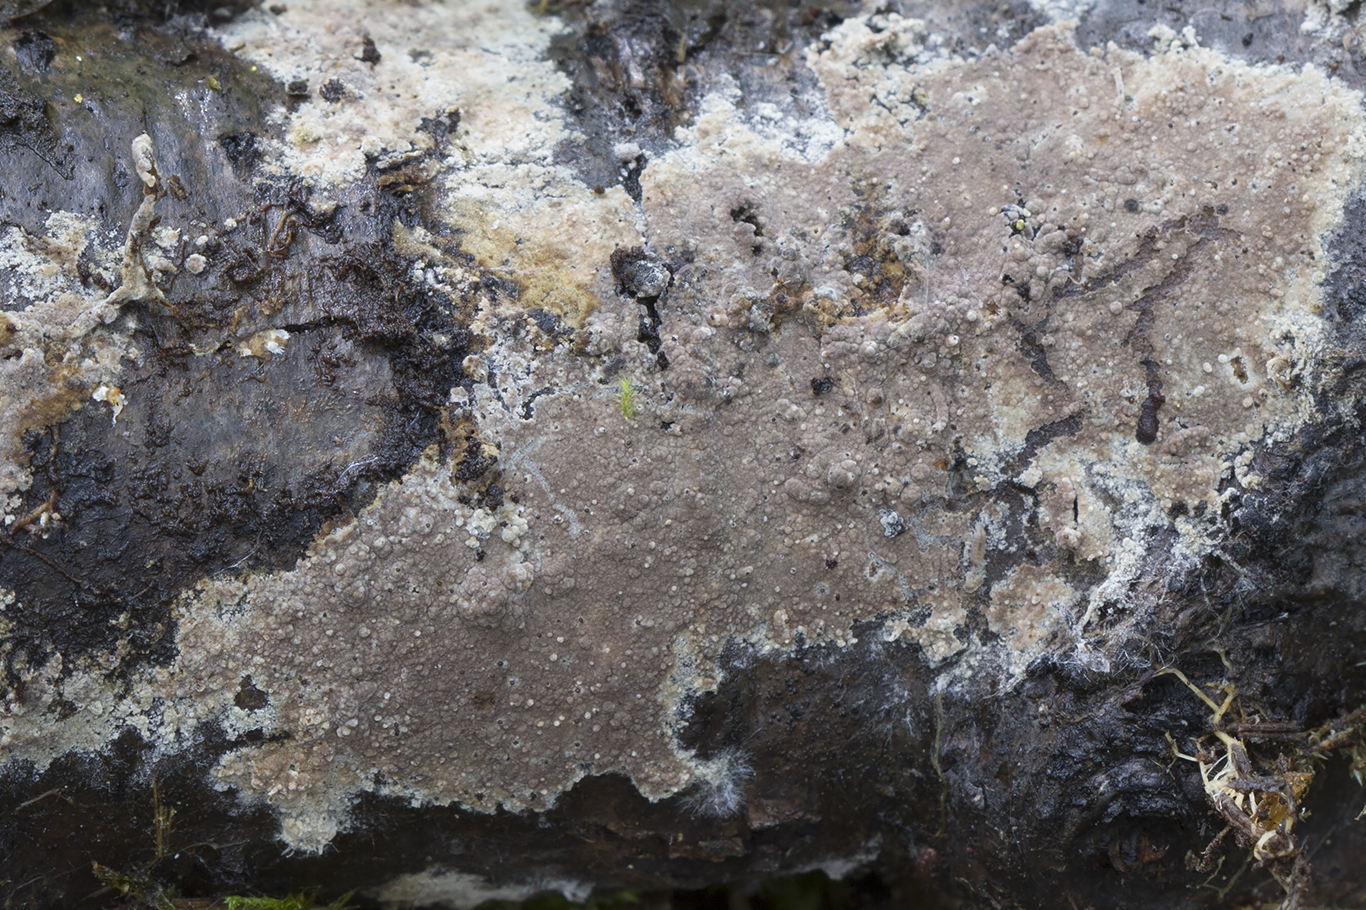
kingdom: Fungi
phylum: Basidiomycota
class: Agaricomycetes
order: Thelephorales
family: Thelephoraceae
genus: Thelephora
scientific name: Thelephora wakefieldiae
